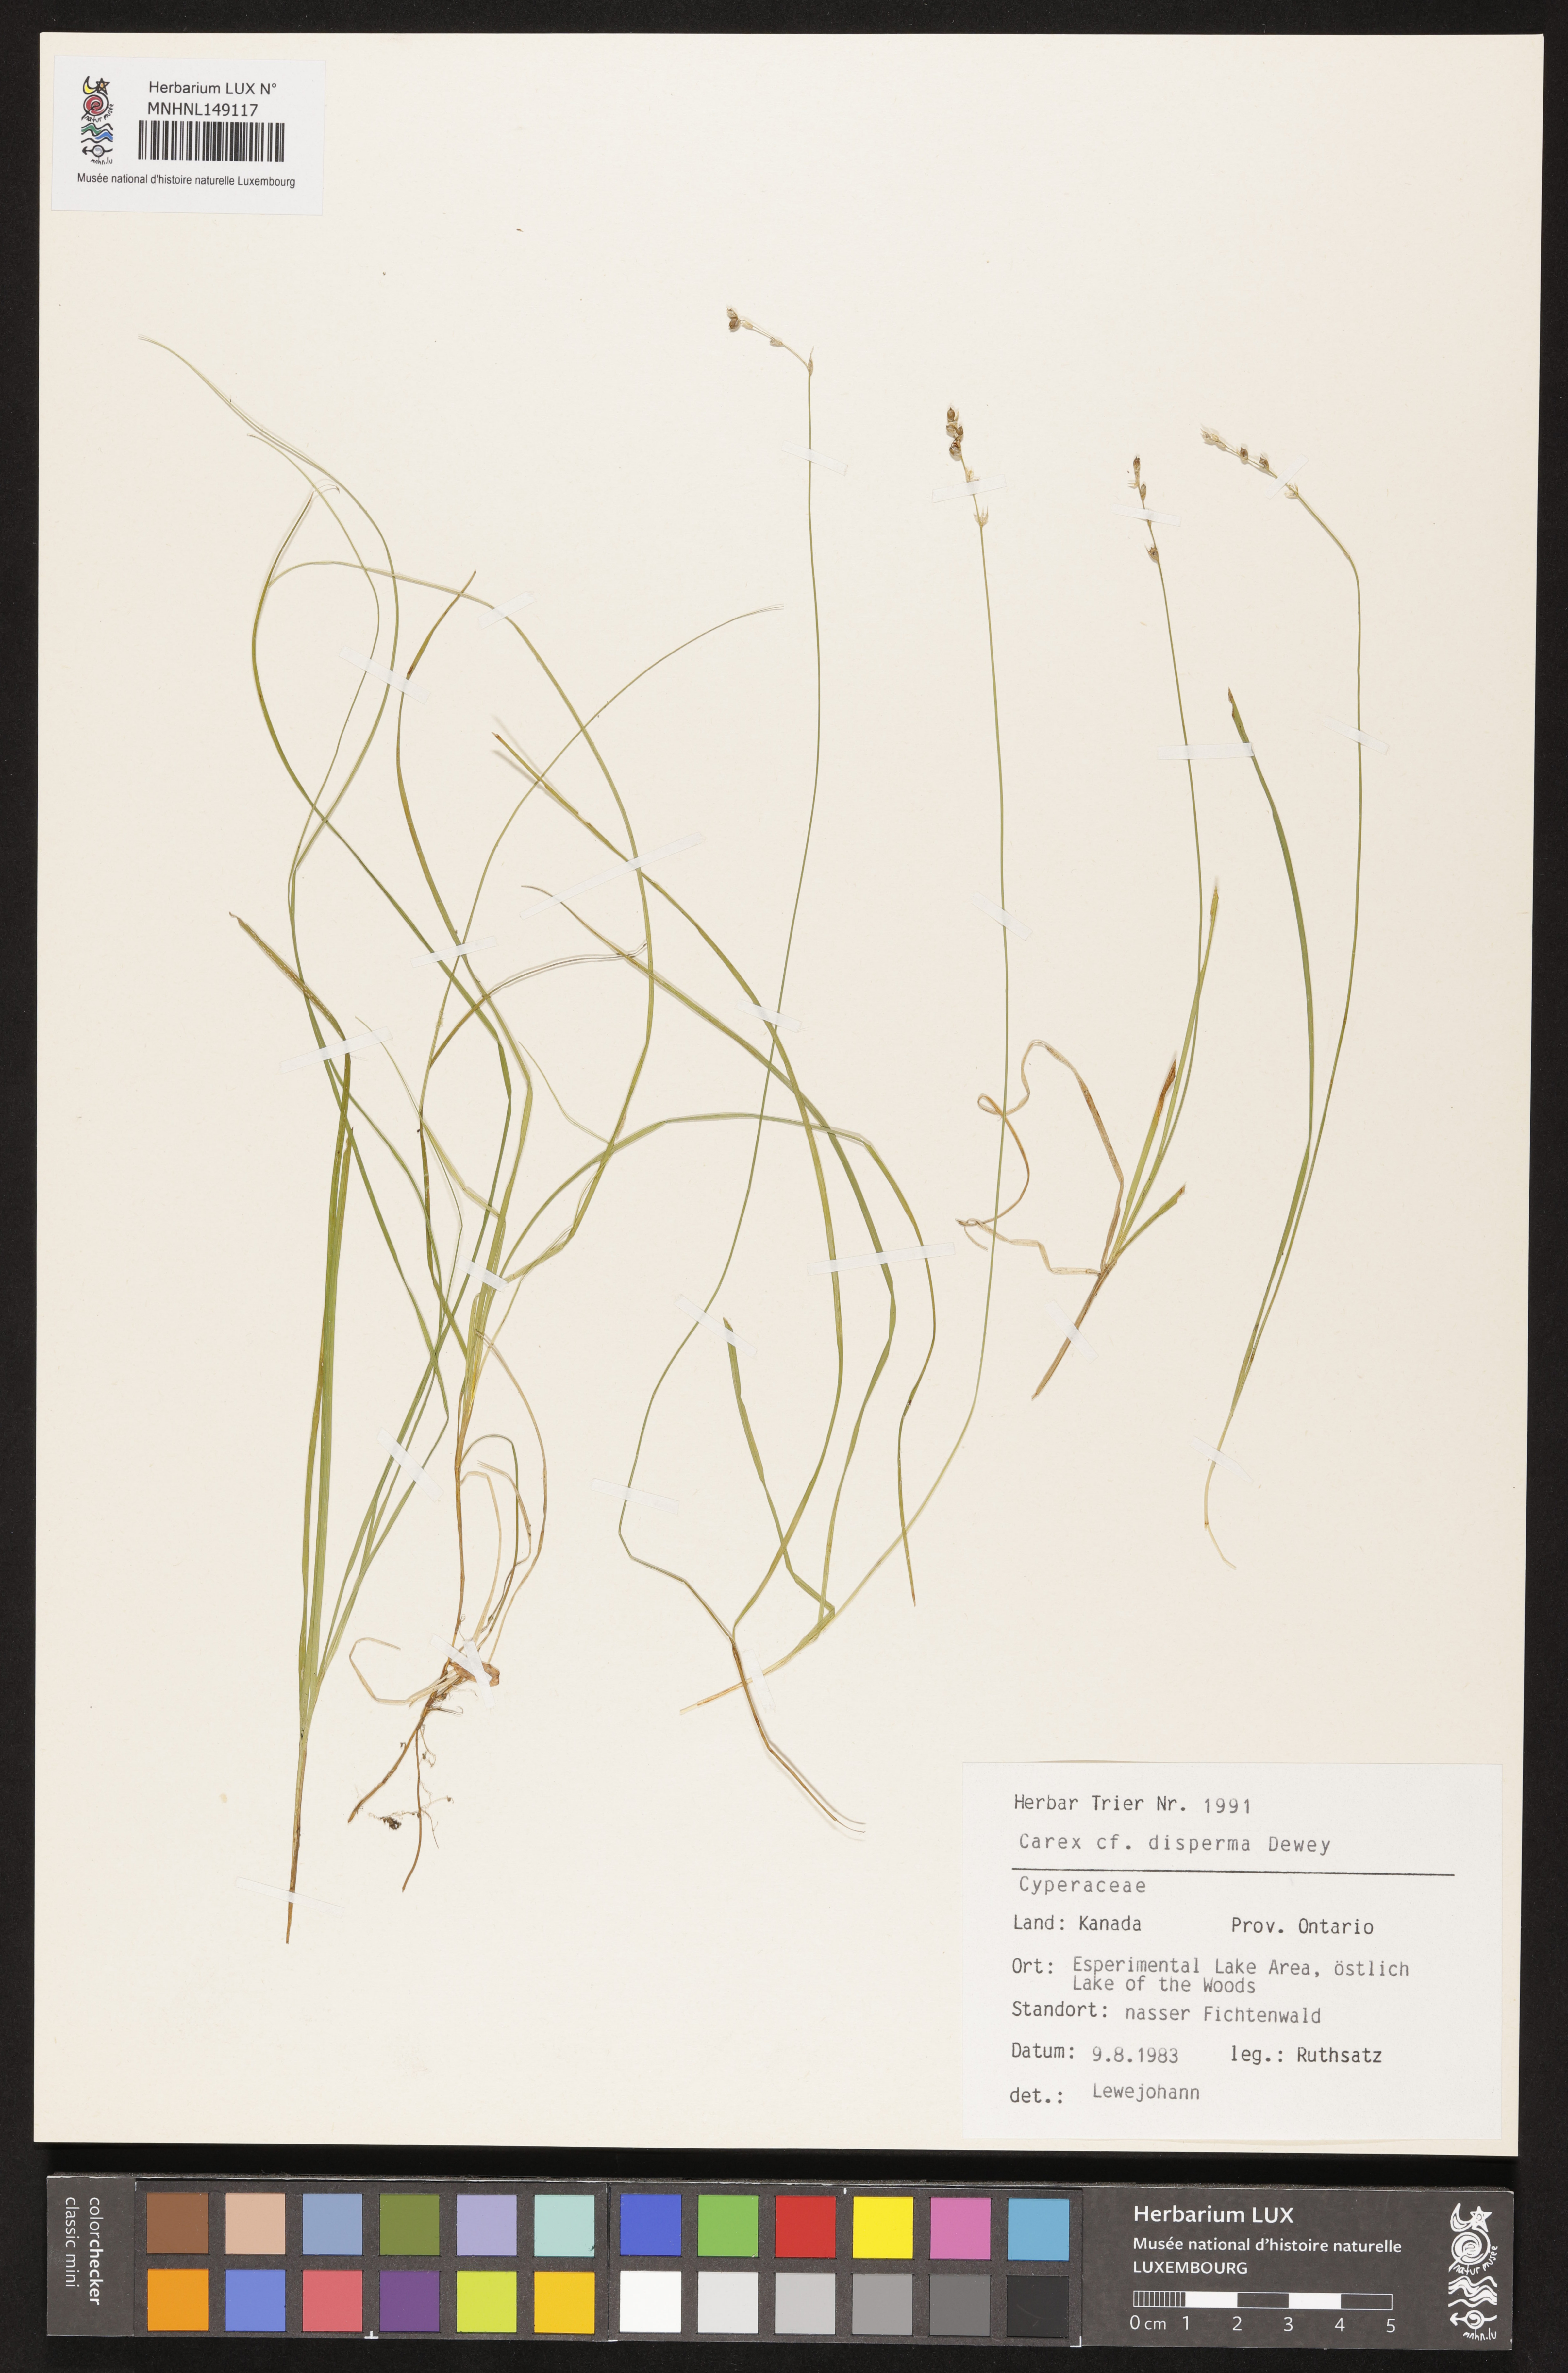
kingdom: Plantae
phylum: Tracheophyta
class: Liliopsida
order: Poales
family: Cyperaceae
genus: Carex
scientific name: Carex disperma
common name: Short-leaved sedge
